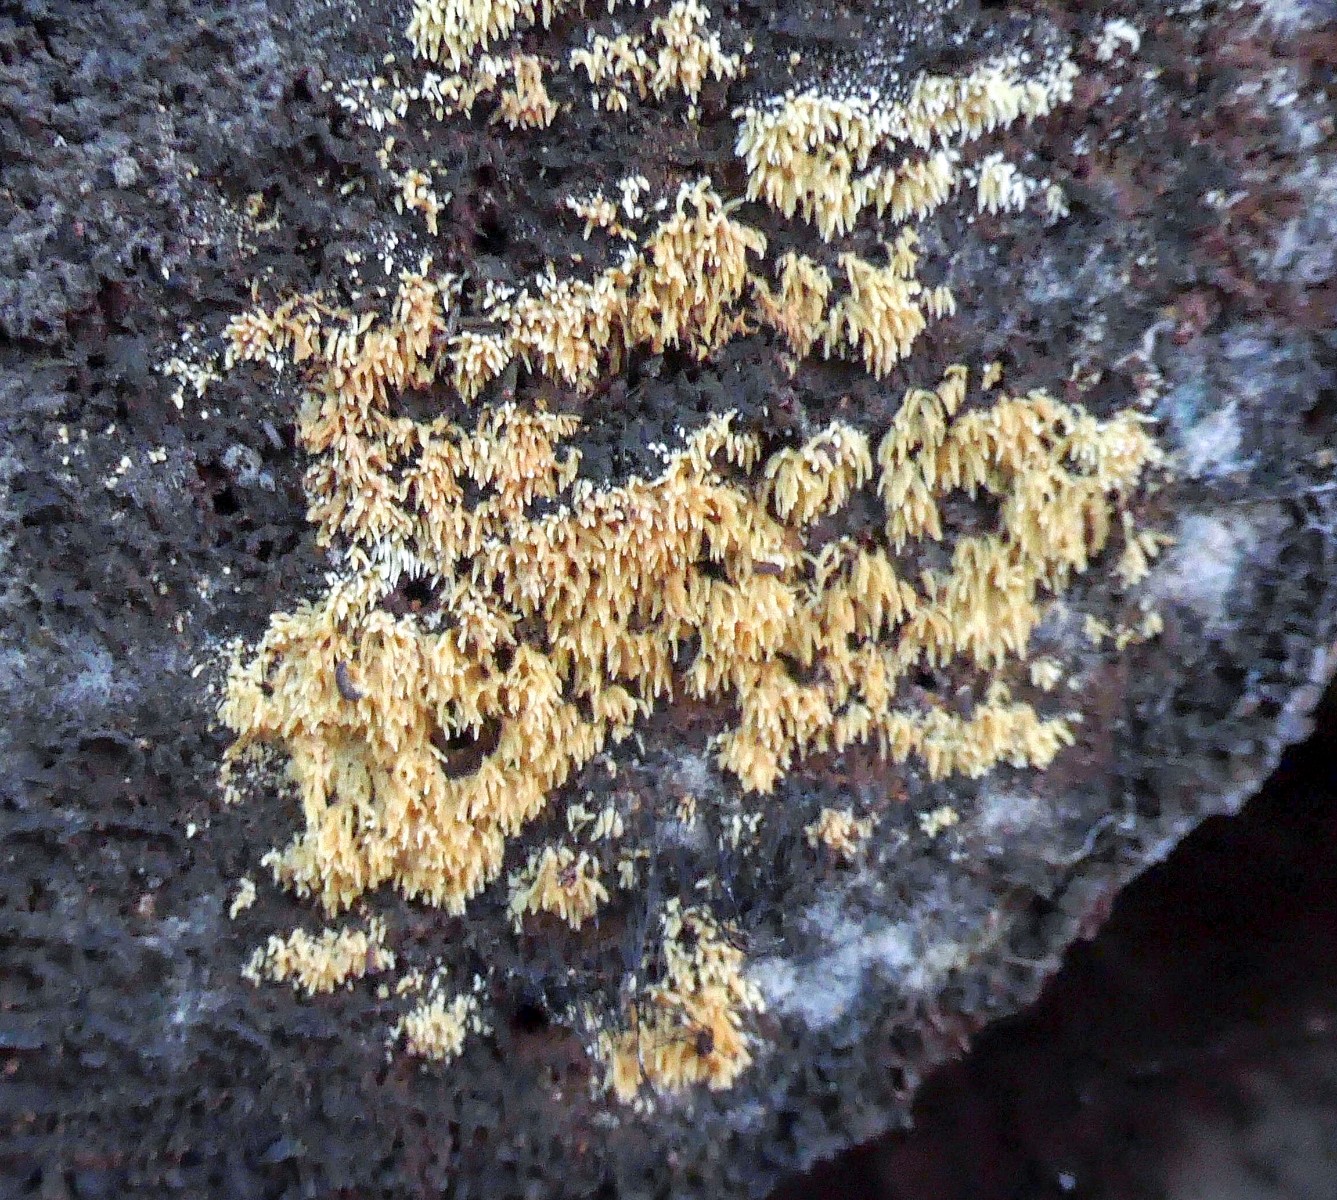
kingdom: Fungi
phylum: Basidiomycota
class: Agaricomycetes
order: Agaricales
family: Clavariaceae
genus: Mucronella
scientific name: Mucronella flava
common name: gul hængepig
